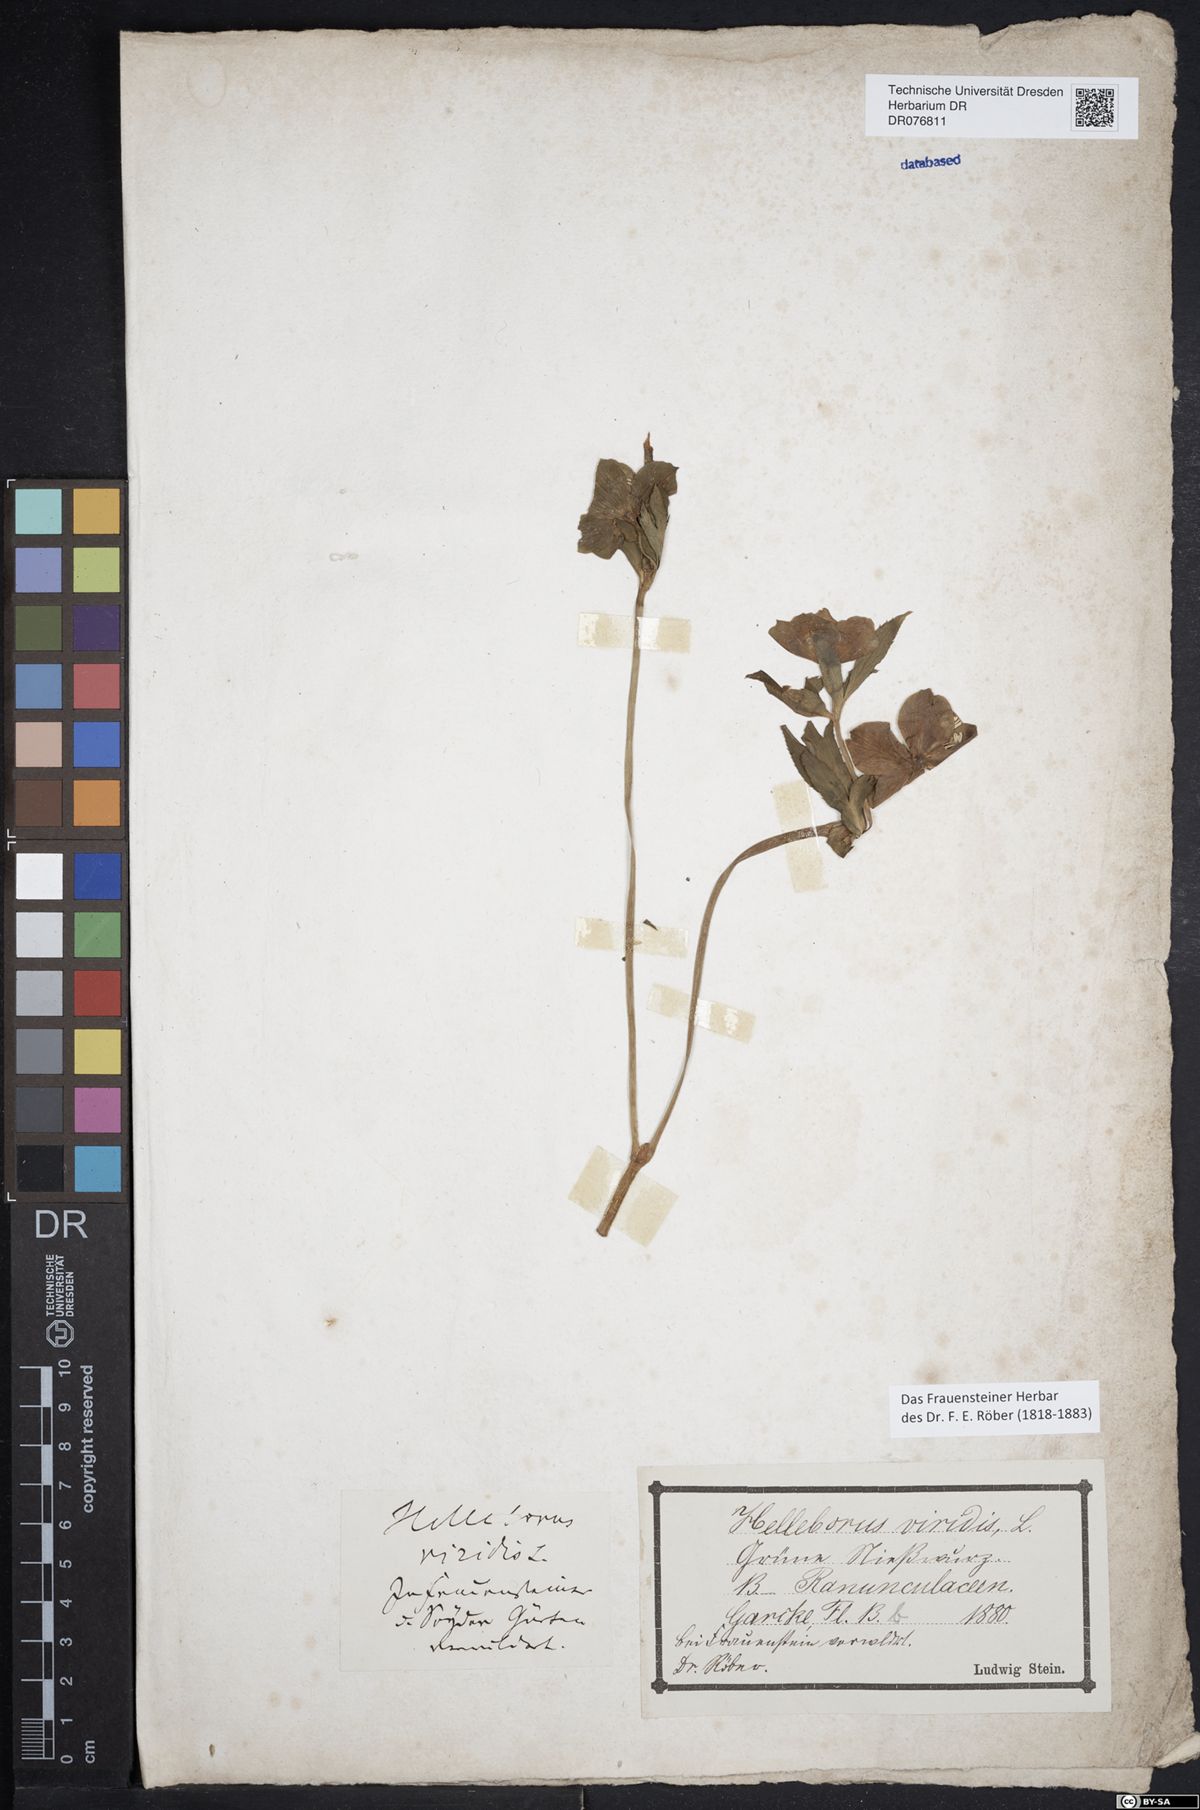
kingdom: Plantae
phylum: Tracheophyta
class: Magnoliopsida
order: Ranunculales
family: Ranunculaceae
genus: Helleborus
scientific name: Helleborus viridis
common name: Green hellebore
